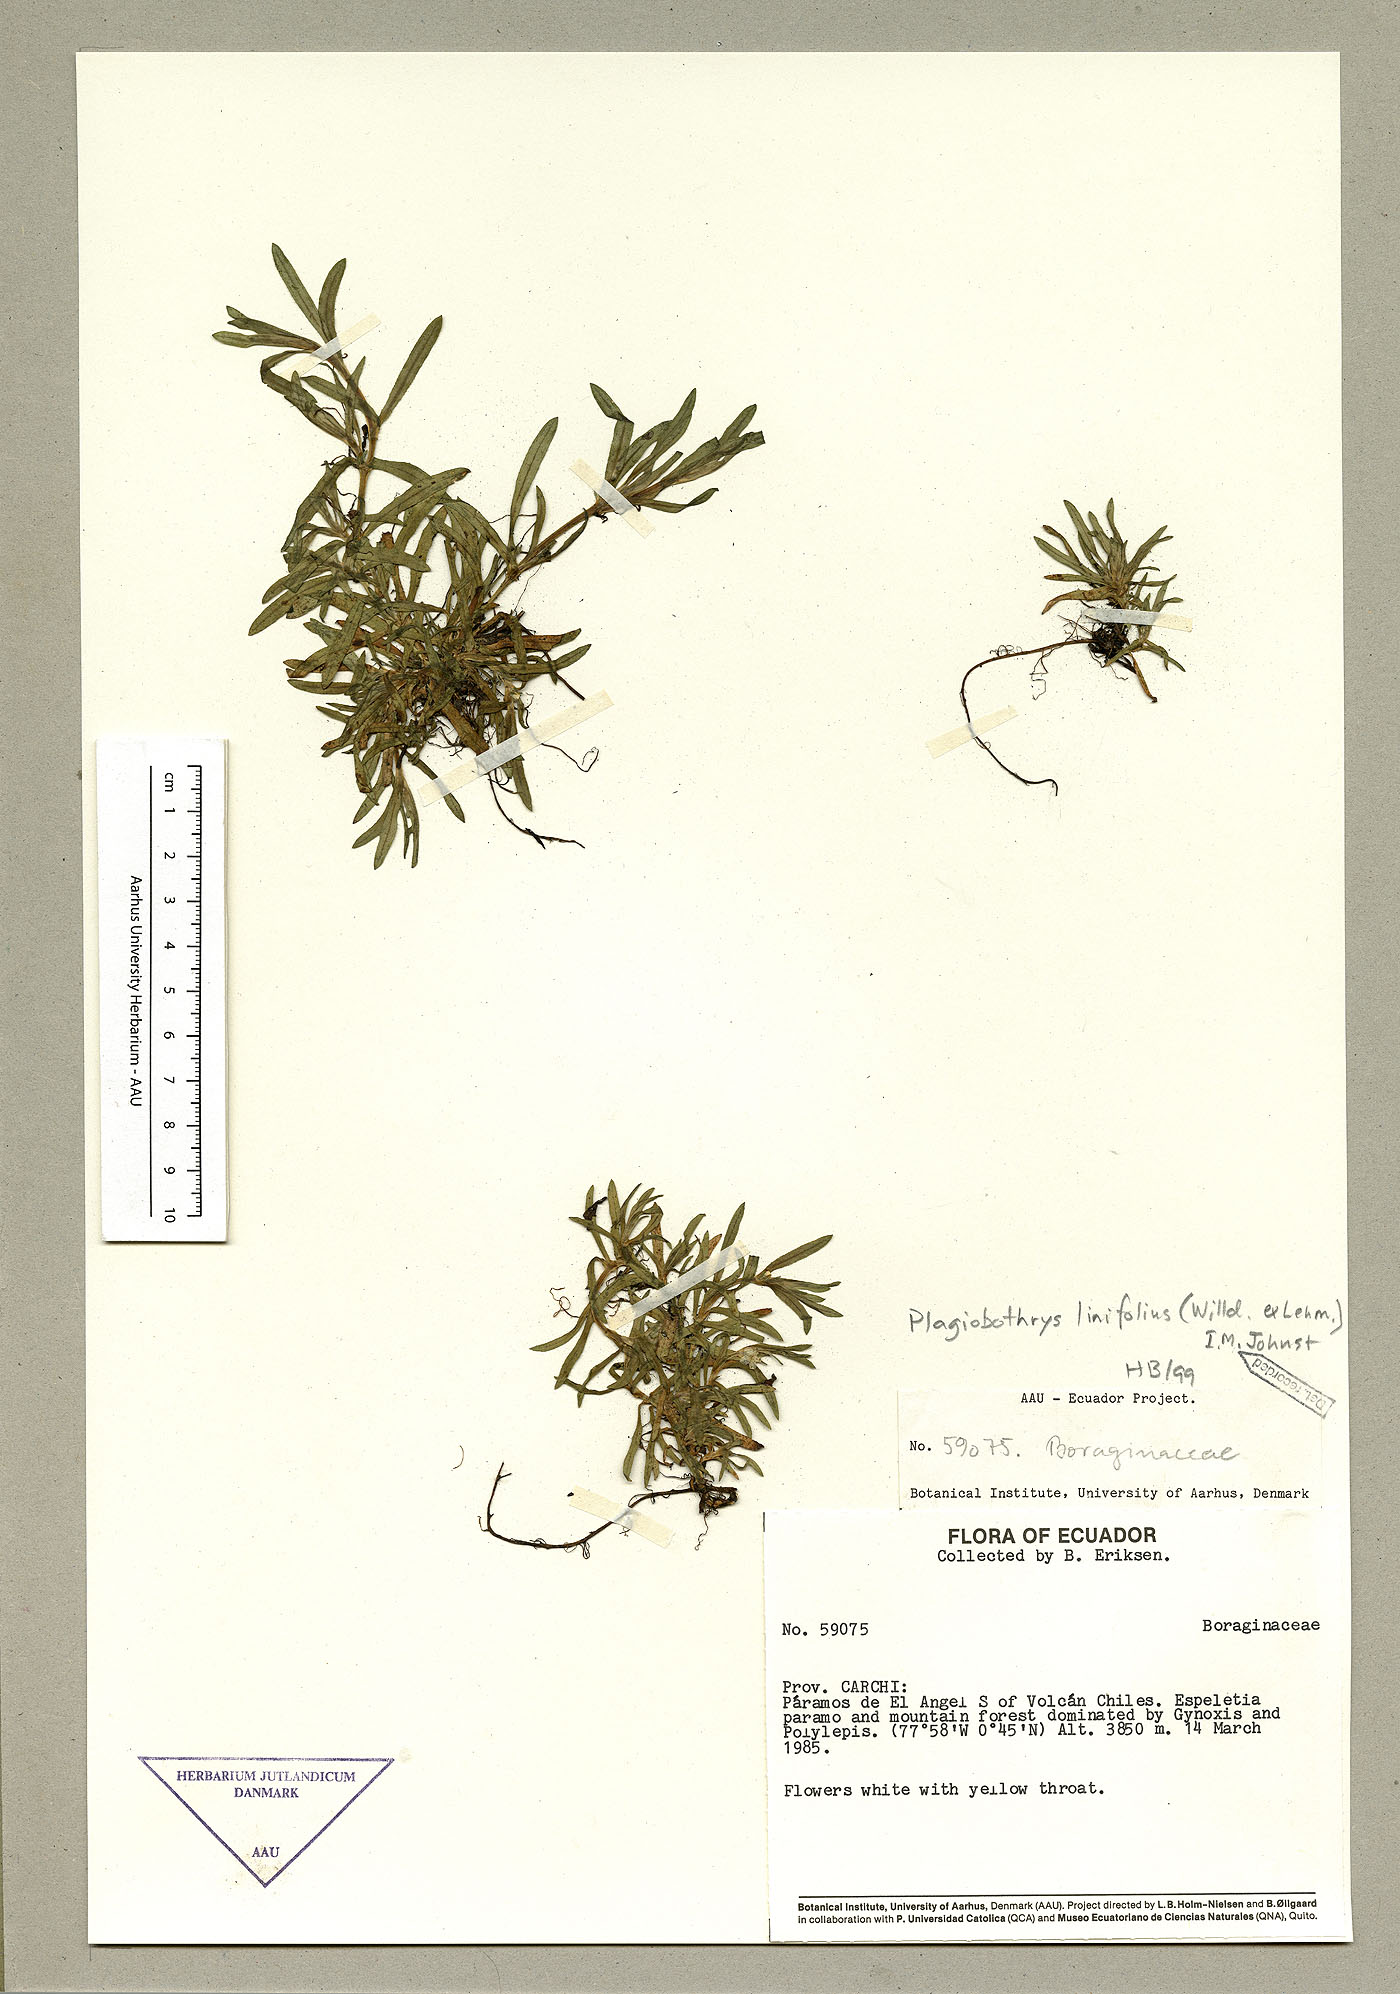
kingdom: Plantae
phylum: Tracheophyta
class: Magnoliopsida
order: Boraginales
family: Boraginaceae
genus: Plagiobothrys
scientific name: Plagiobothrys linifolius
